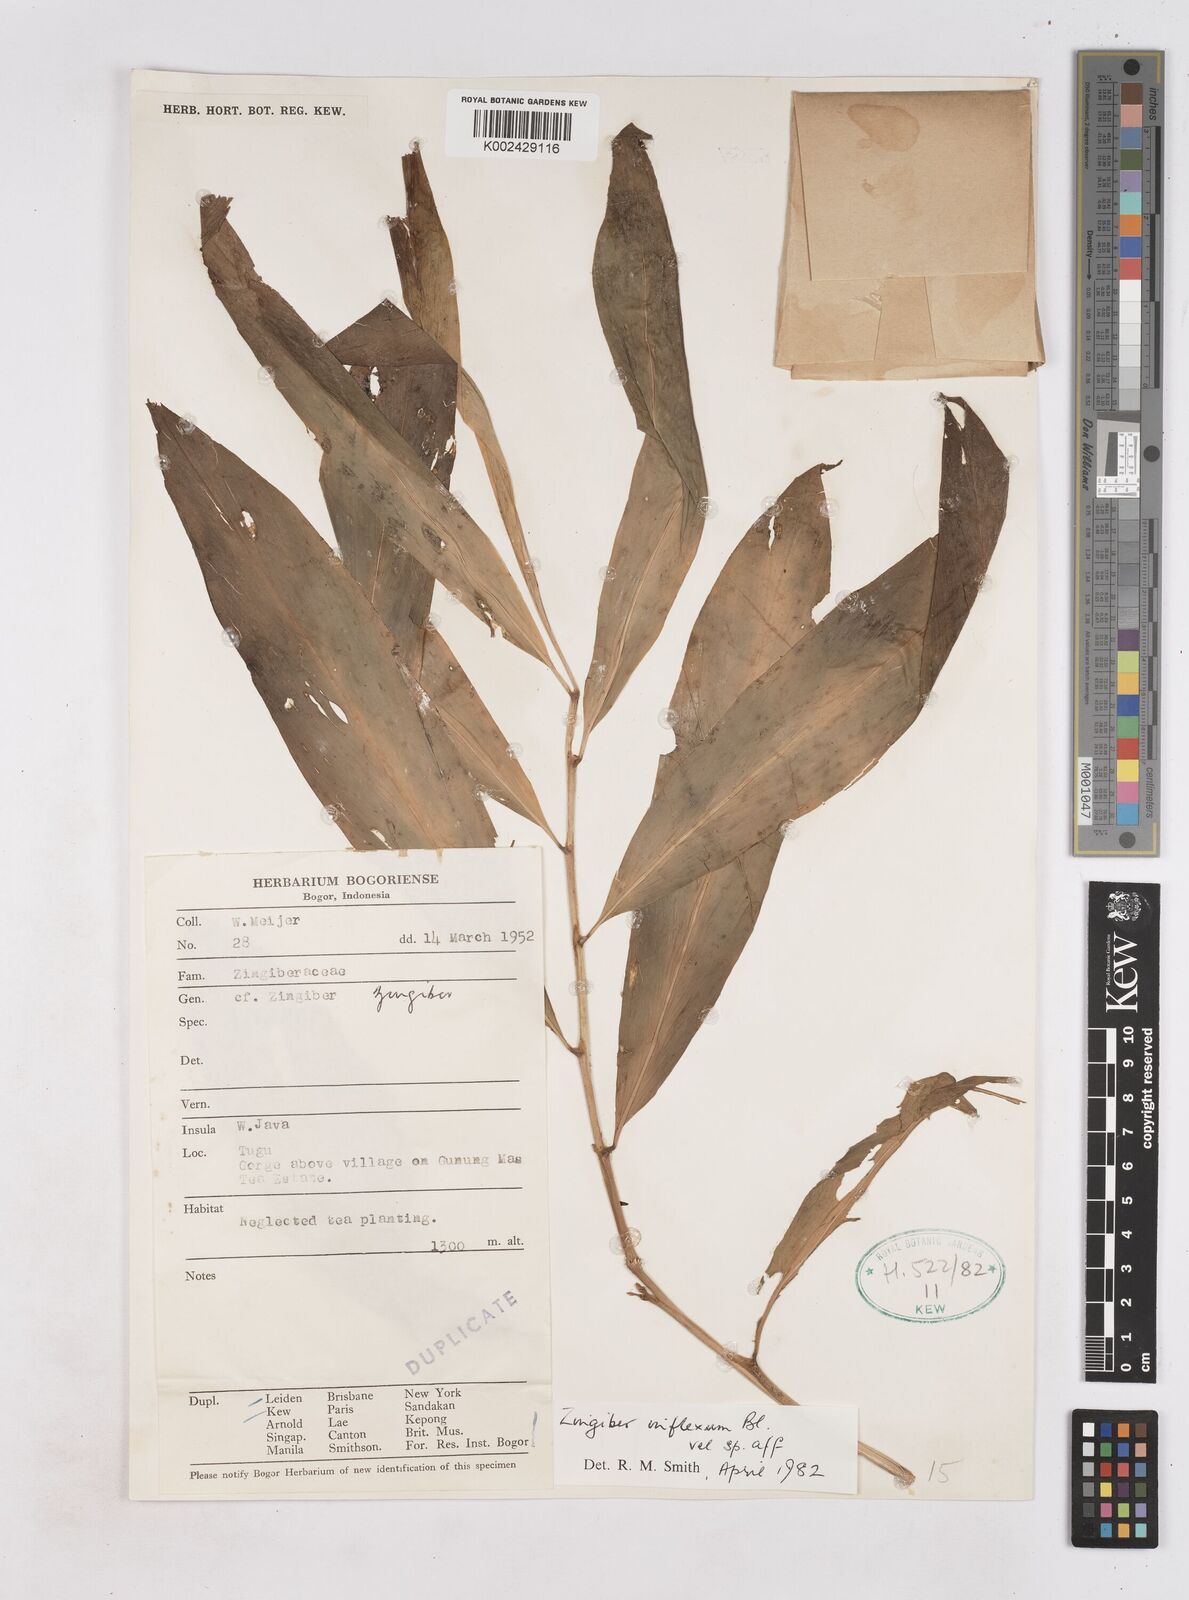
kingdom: Plantae
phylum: Tracheophyta
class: Liliopsida
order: Zingiberales
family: Zingiberaceae
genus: Zingiber
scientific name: Zingiber inflexum
